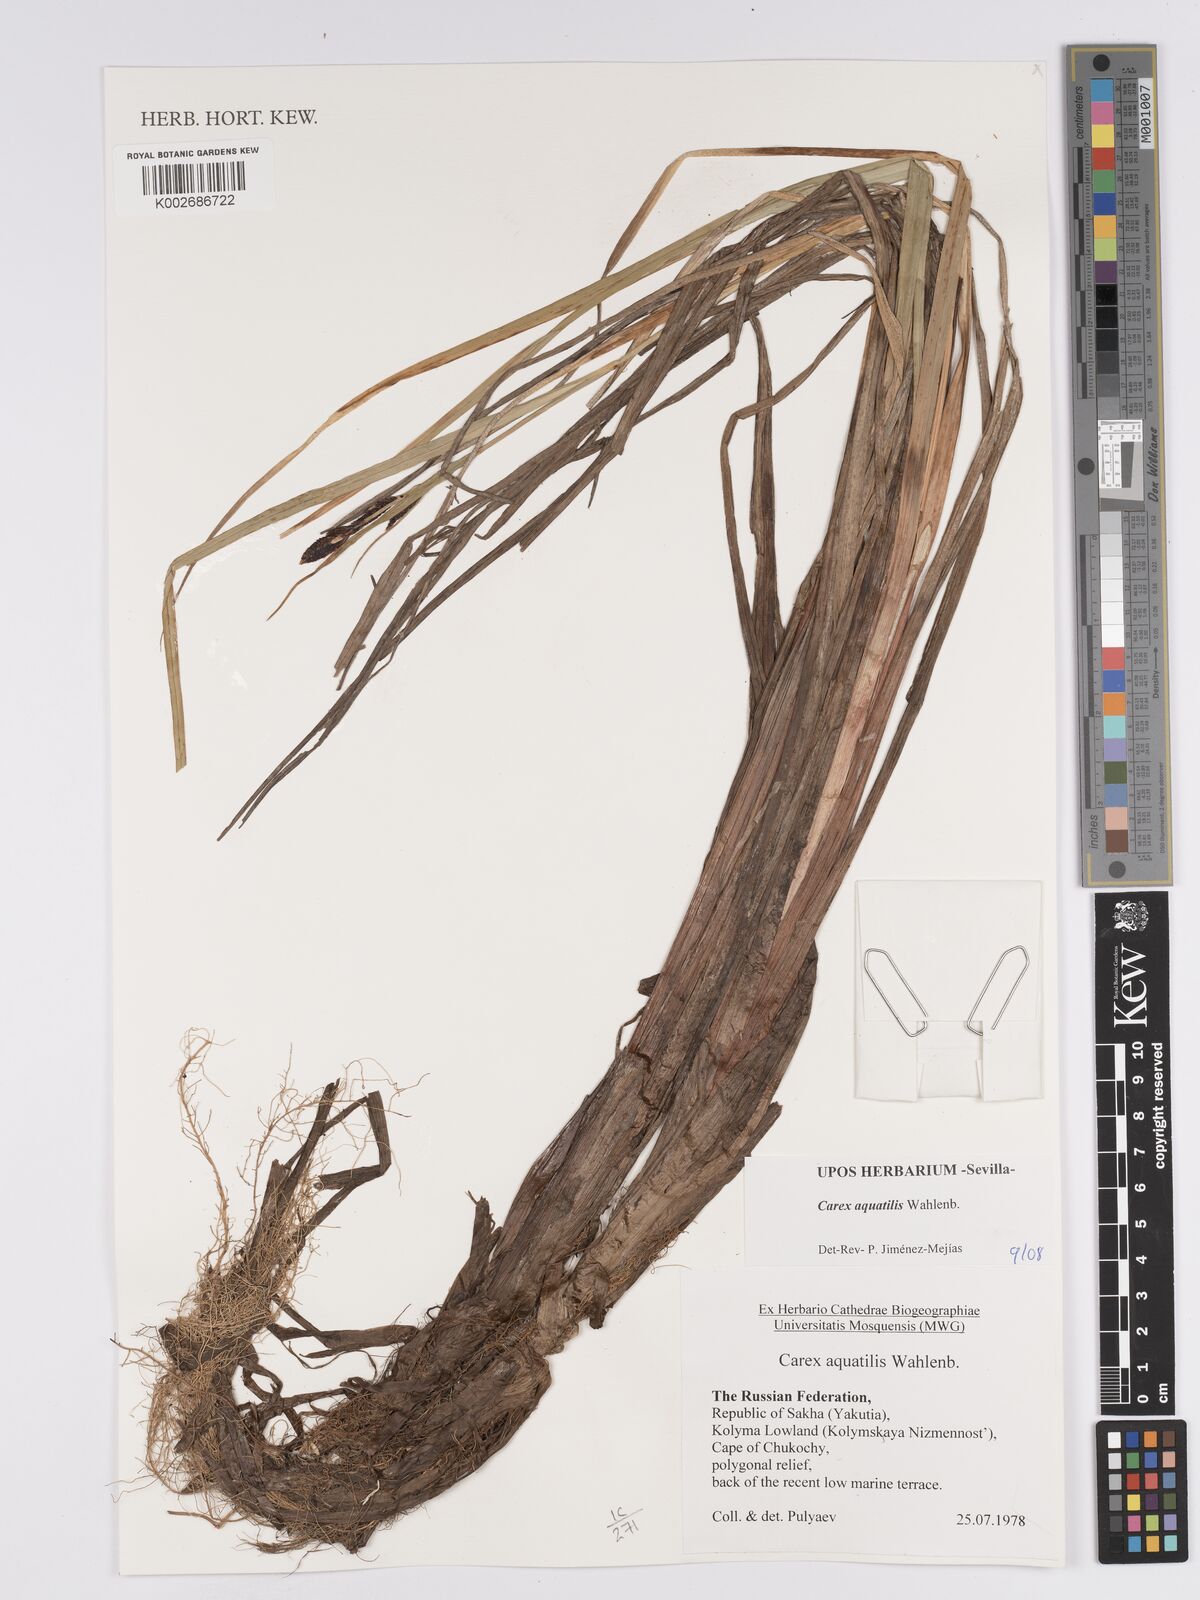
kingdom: Plantae
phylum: Tracheophyta
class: Liliopsida
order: Poales
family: Cyperaceae
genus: Carex
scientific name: Carex aquatilis
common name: Water sedge
